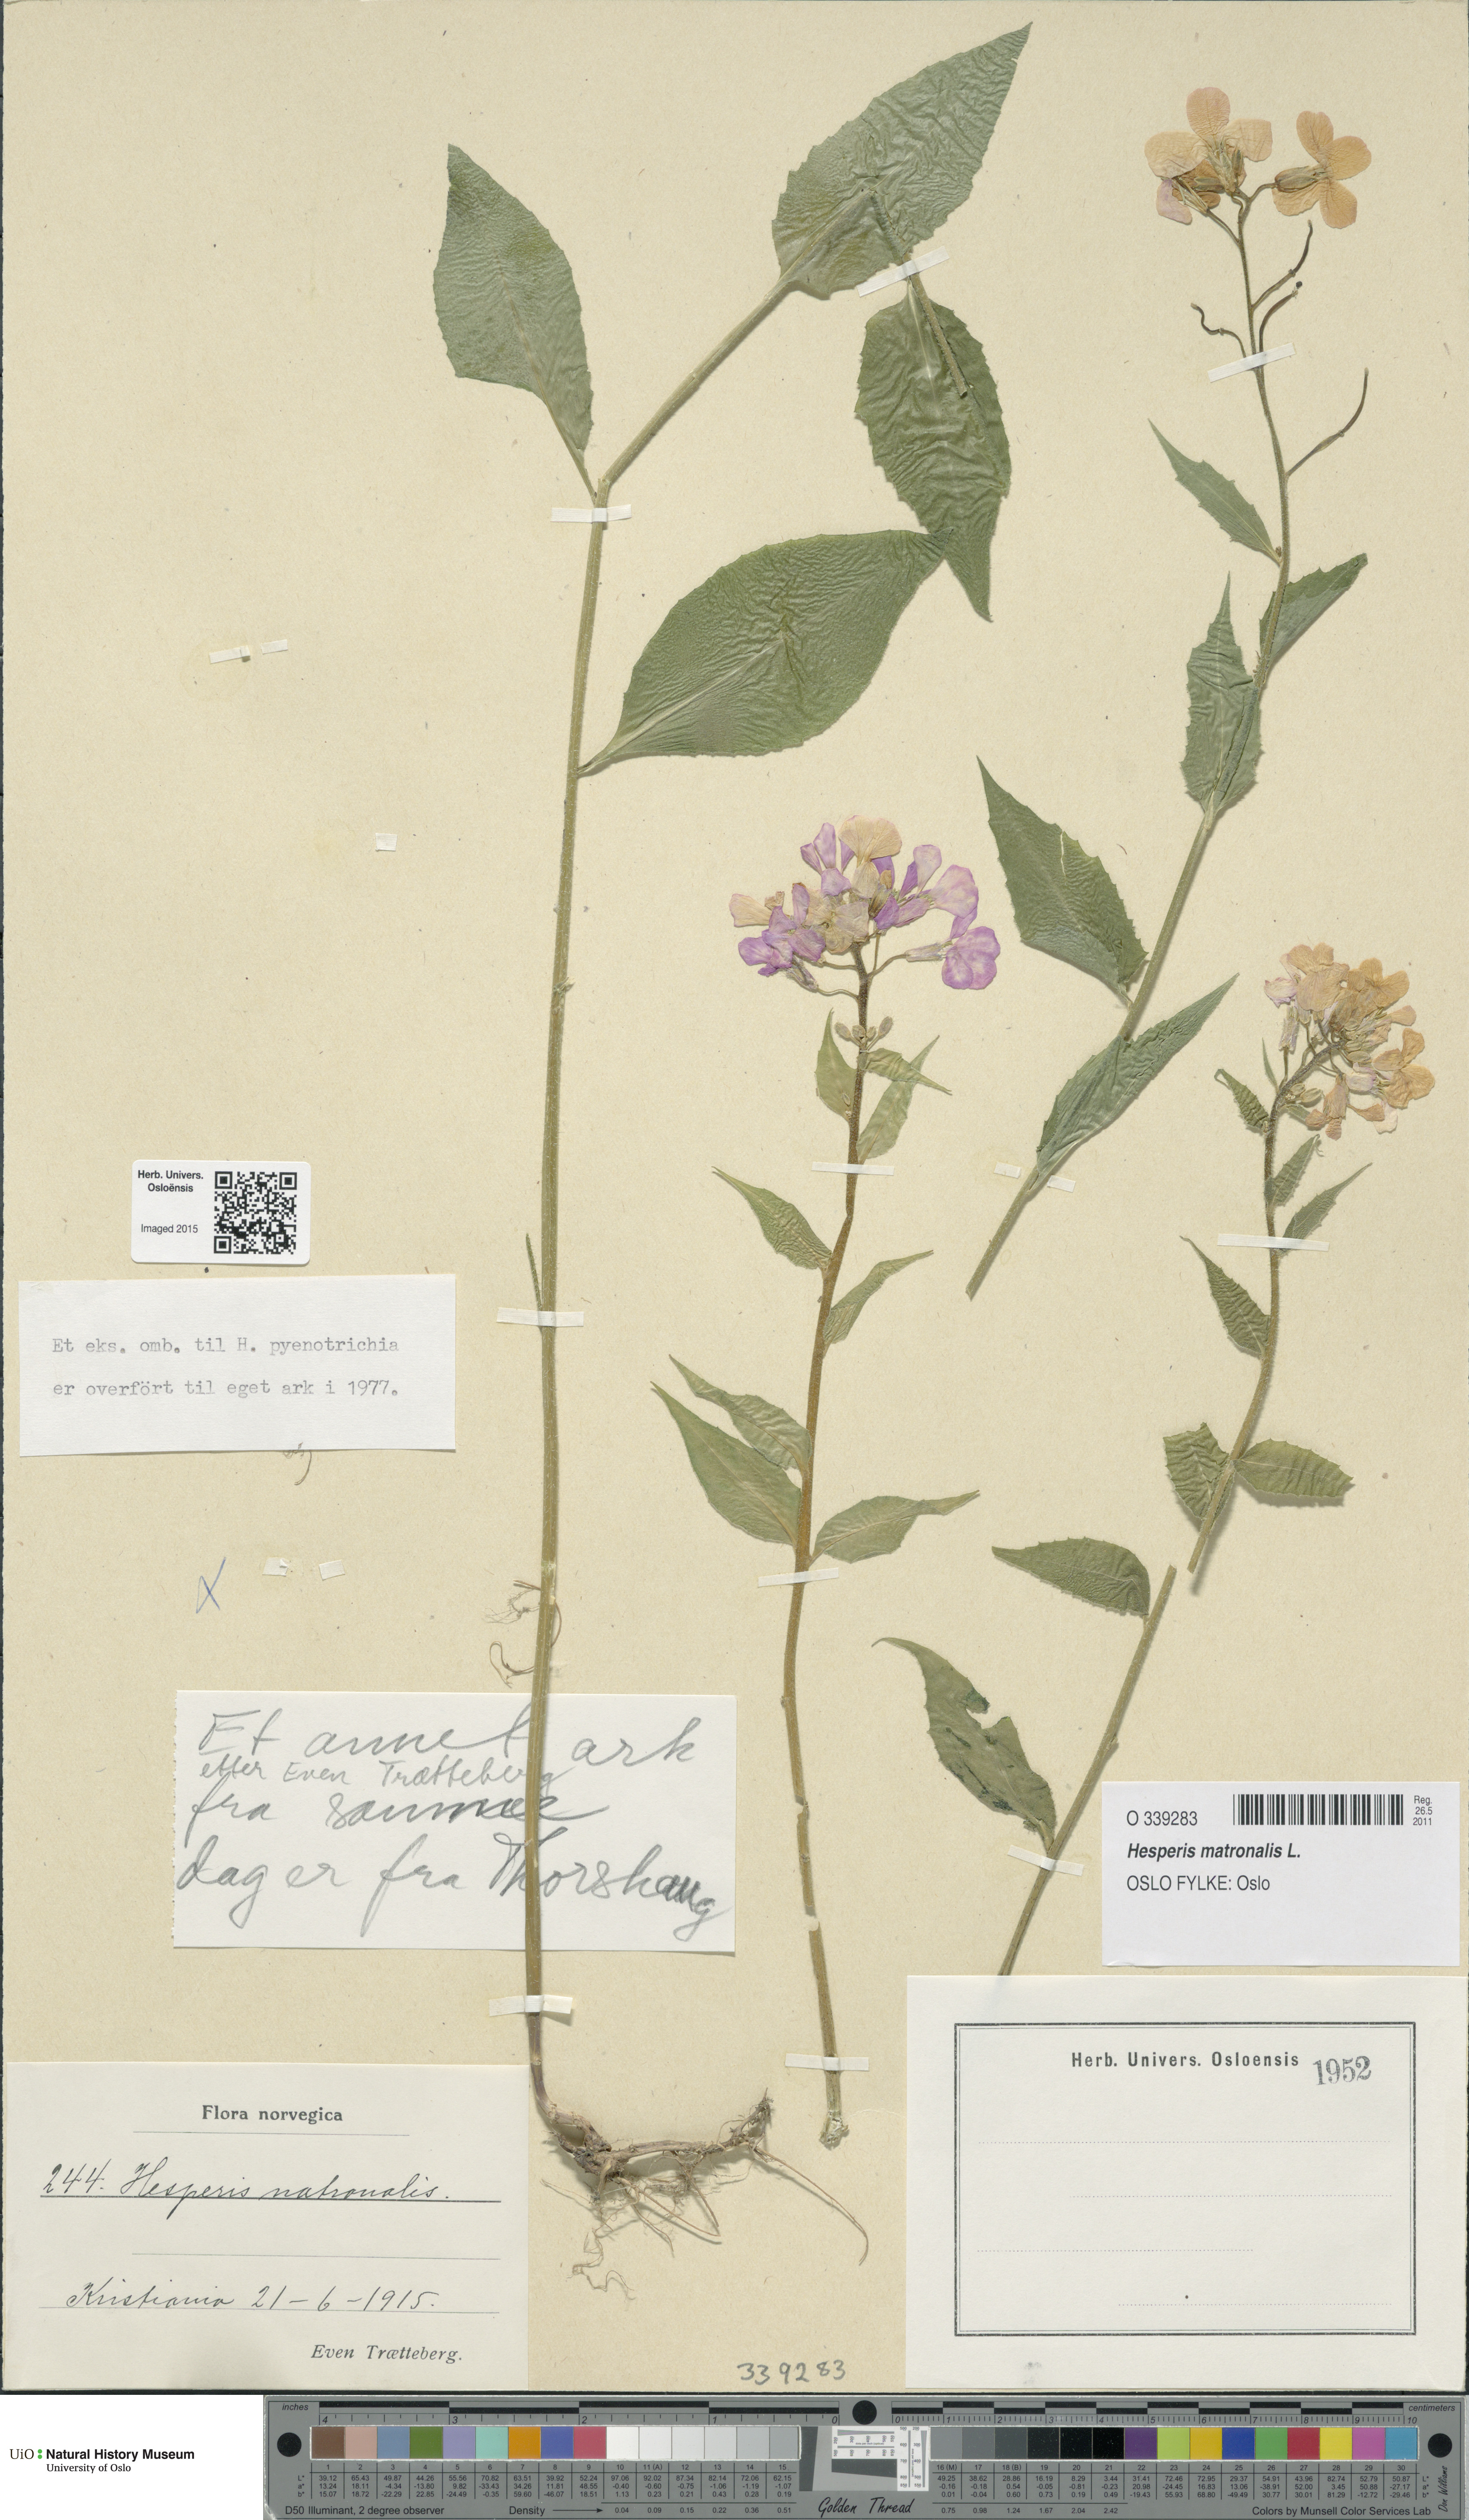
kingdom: Plantae
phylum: Tracheophyta
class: Magnoliopsida
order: Brassicales
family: Brassicaceae
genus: Hesperis
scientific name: Hesperis matronalis
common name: Dame's-violet
